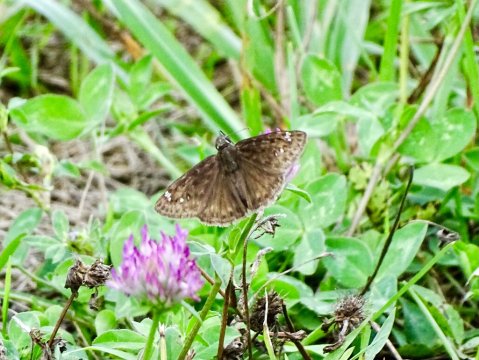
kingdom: Animalia
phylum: Arthropoda
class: Insecta
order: Lepidoptera
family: Hesperiidae
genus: Gesta
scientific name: Gesta
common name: Wild Indigo Duskywing
